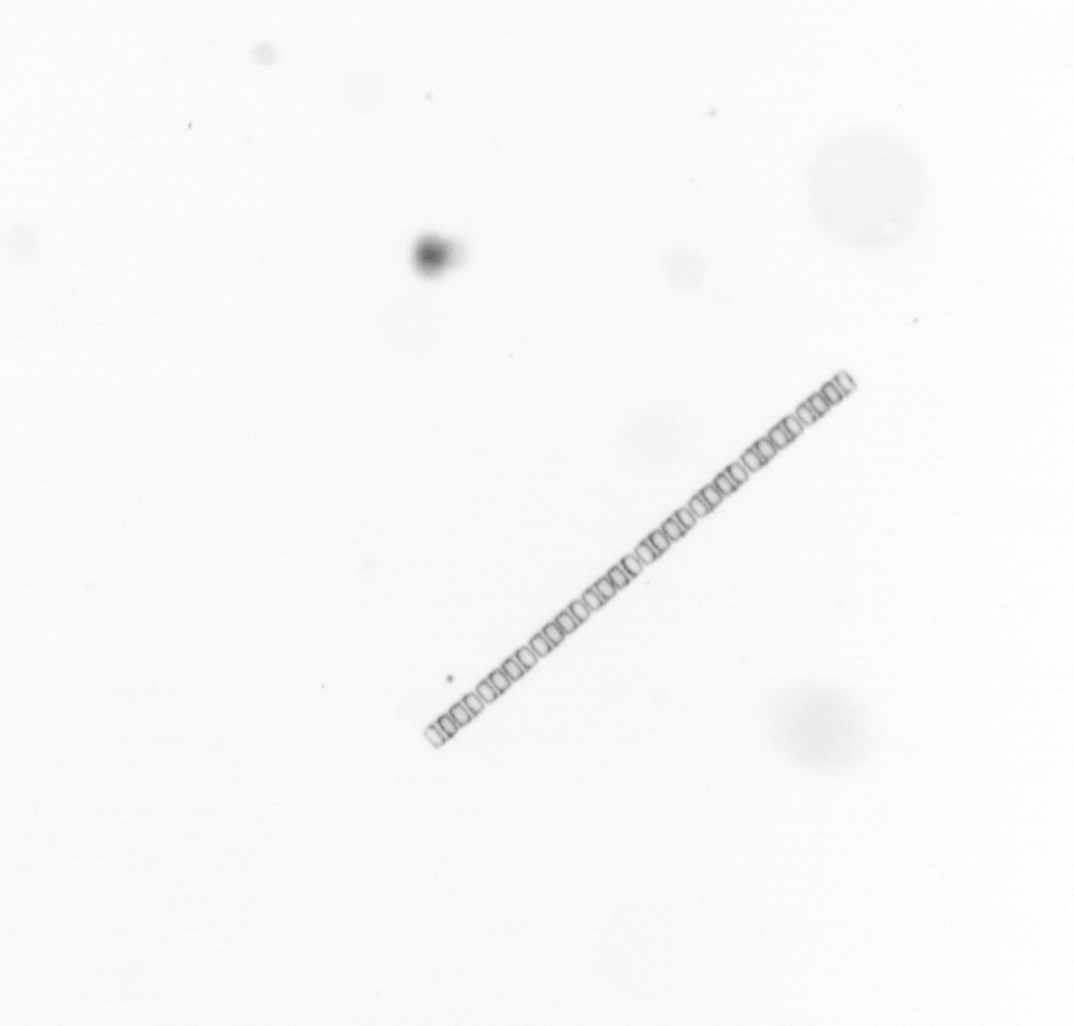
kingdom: Chromista
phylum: Ochrophyta
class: Bacillariophyceae
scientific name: Bacillariophyceae
